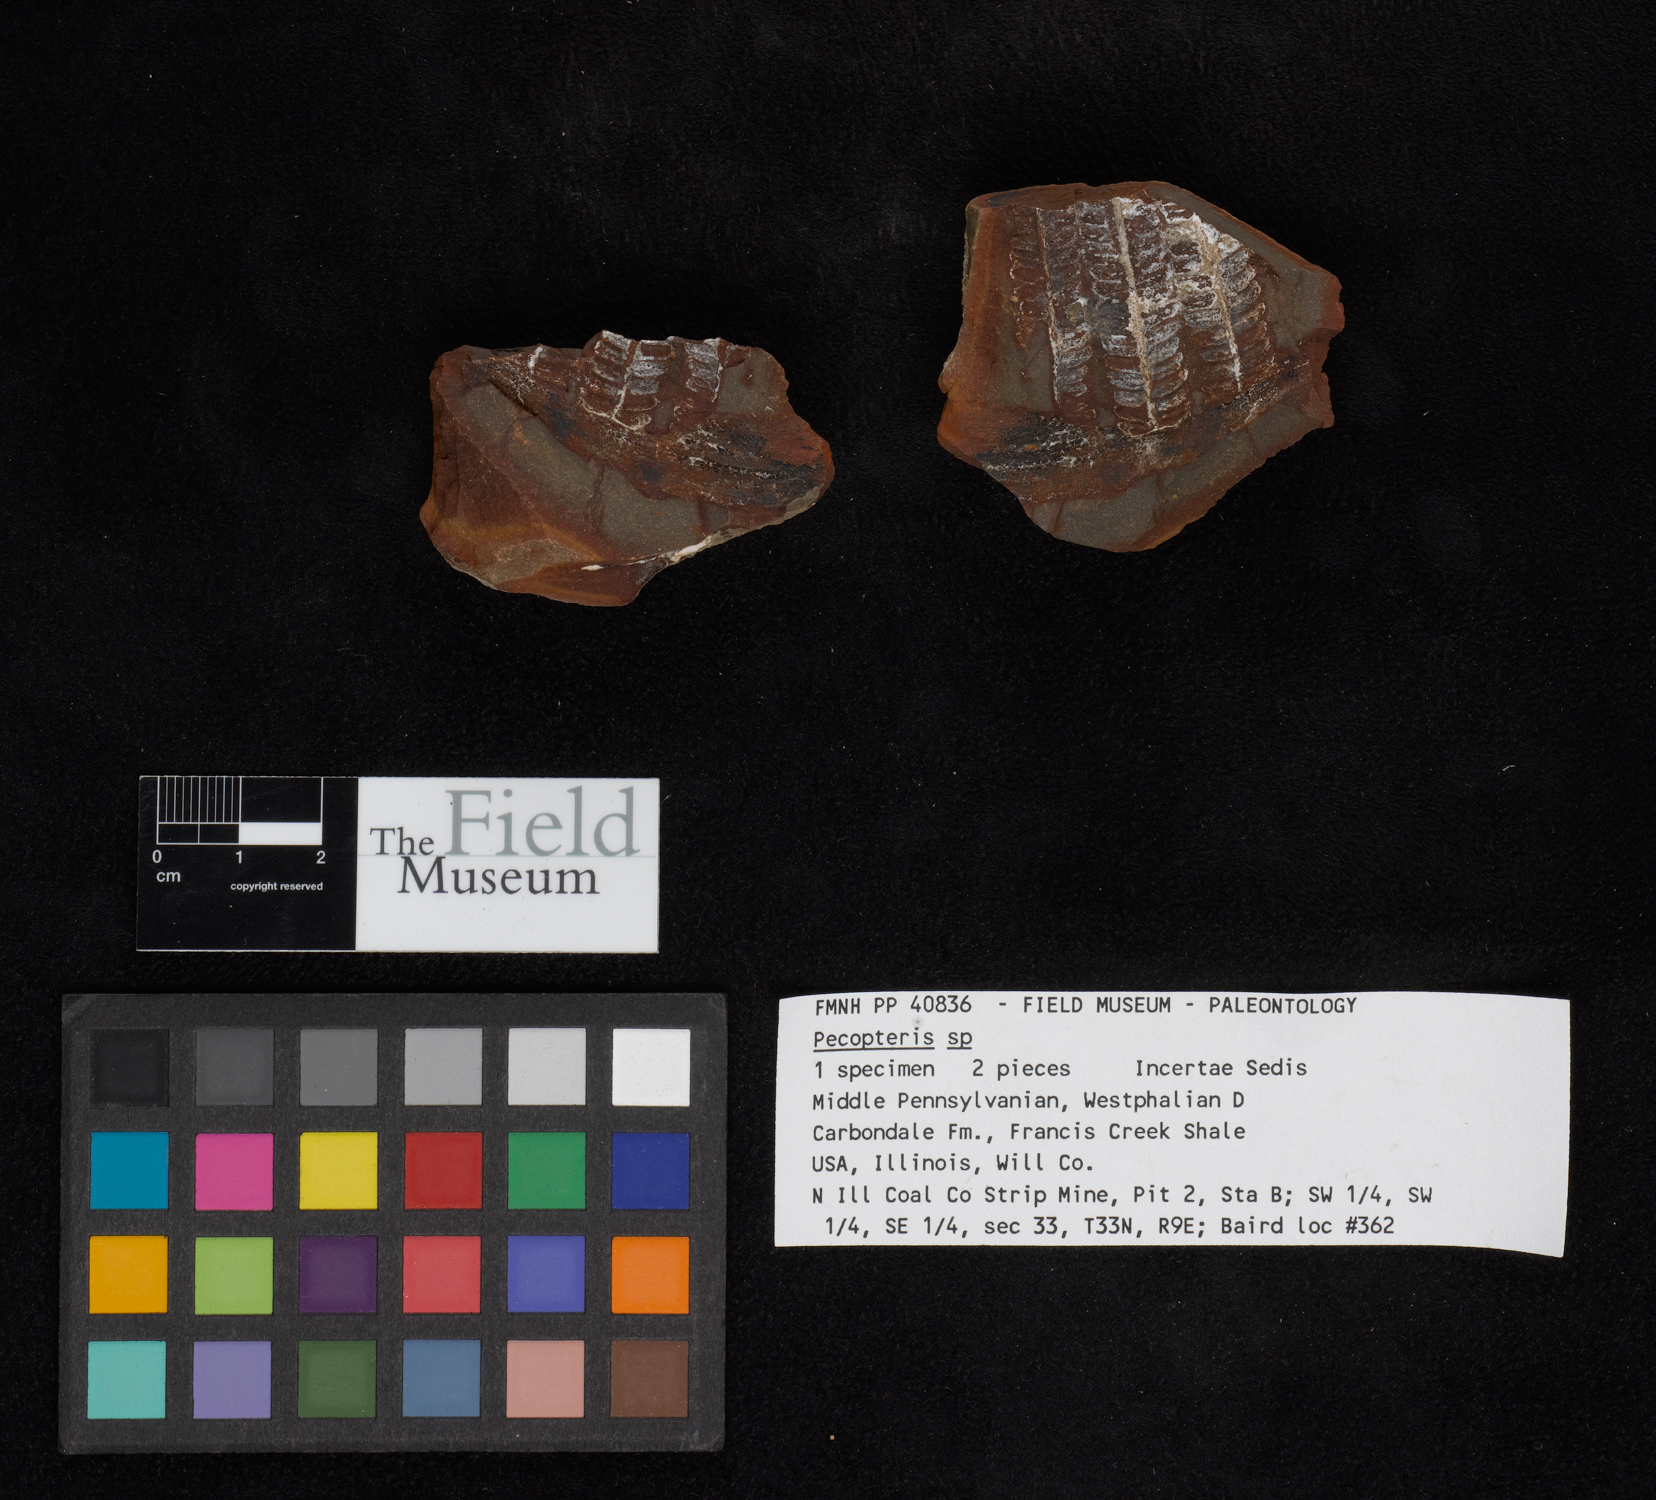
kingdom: Plantae
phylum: Tracheophyta
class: Polypodiopsida
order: Marattiales
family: Asterothecaceae
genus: Pecopteris
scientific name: Pecopteris
